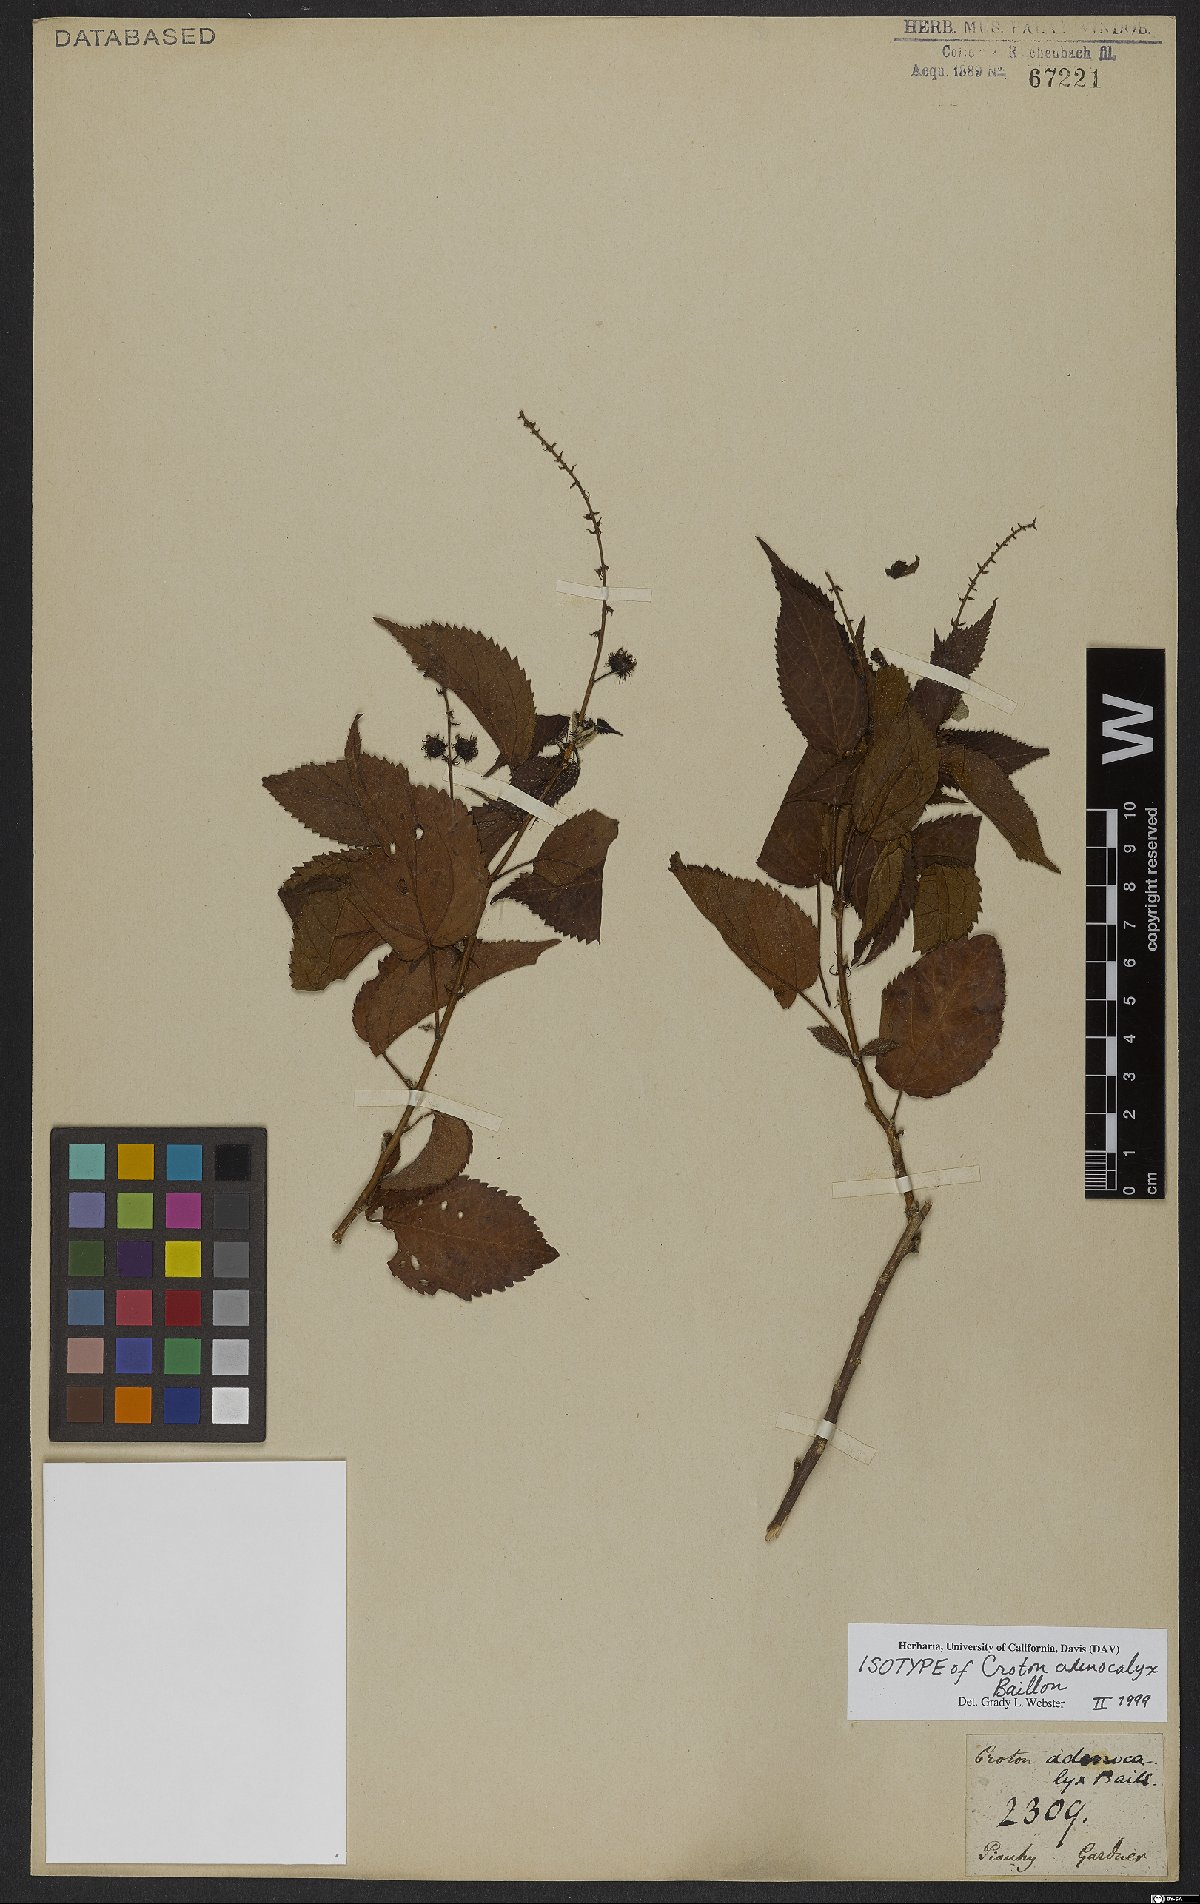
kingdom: Plantae
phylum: Tracheophyta
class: Magnoliopsida
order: Malpighiales
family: Euphorbiaceae
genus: Croton
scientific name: Croton adenocalyx
